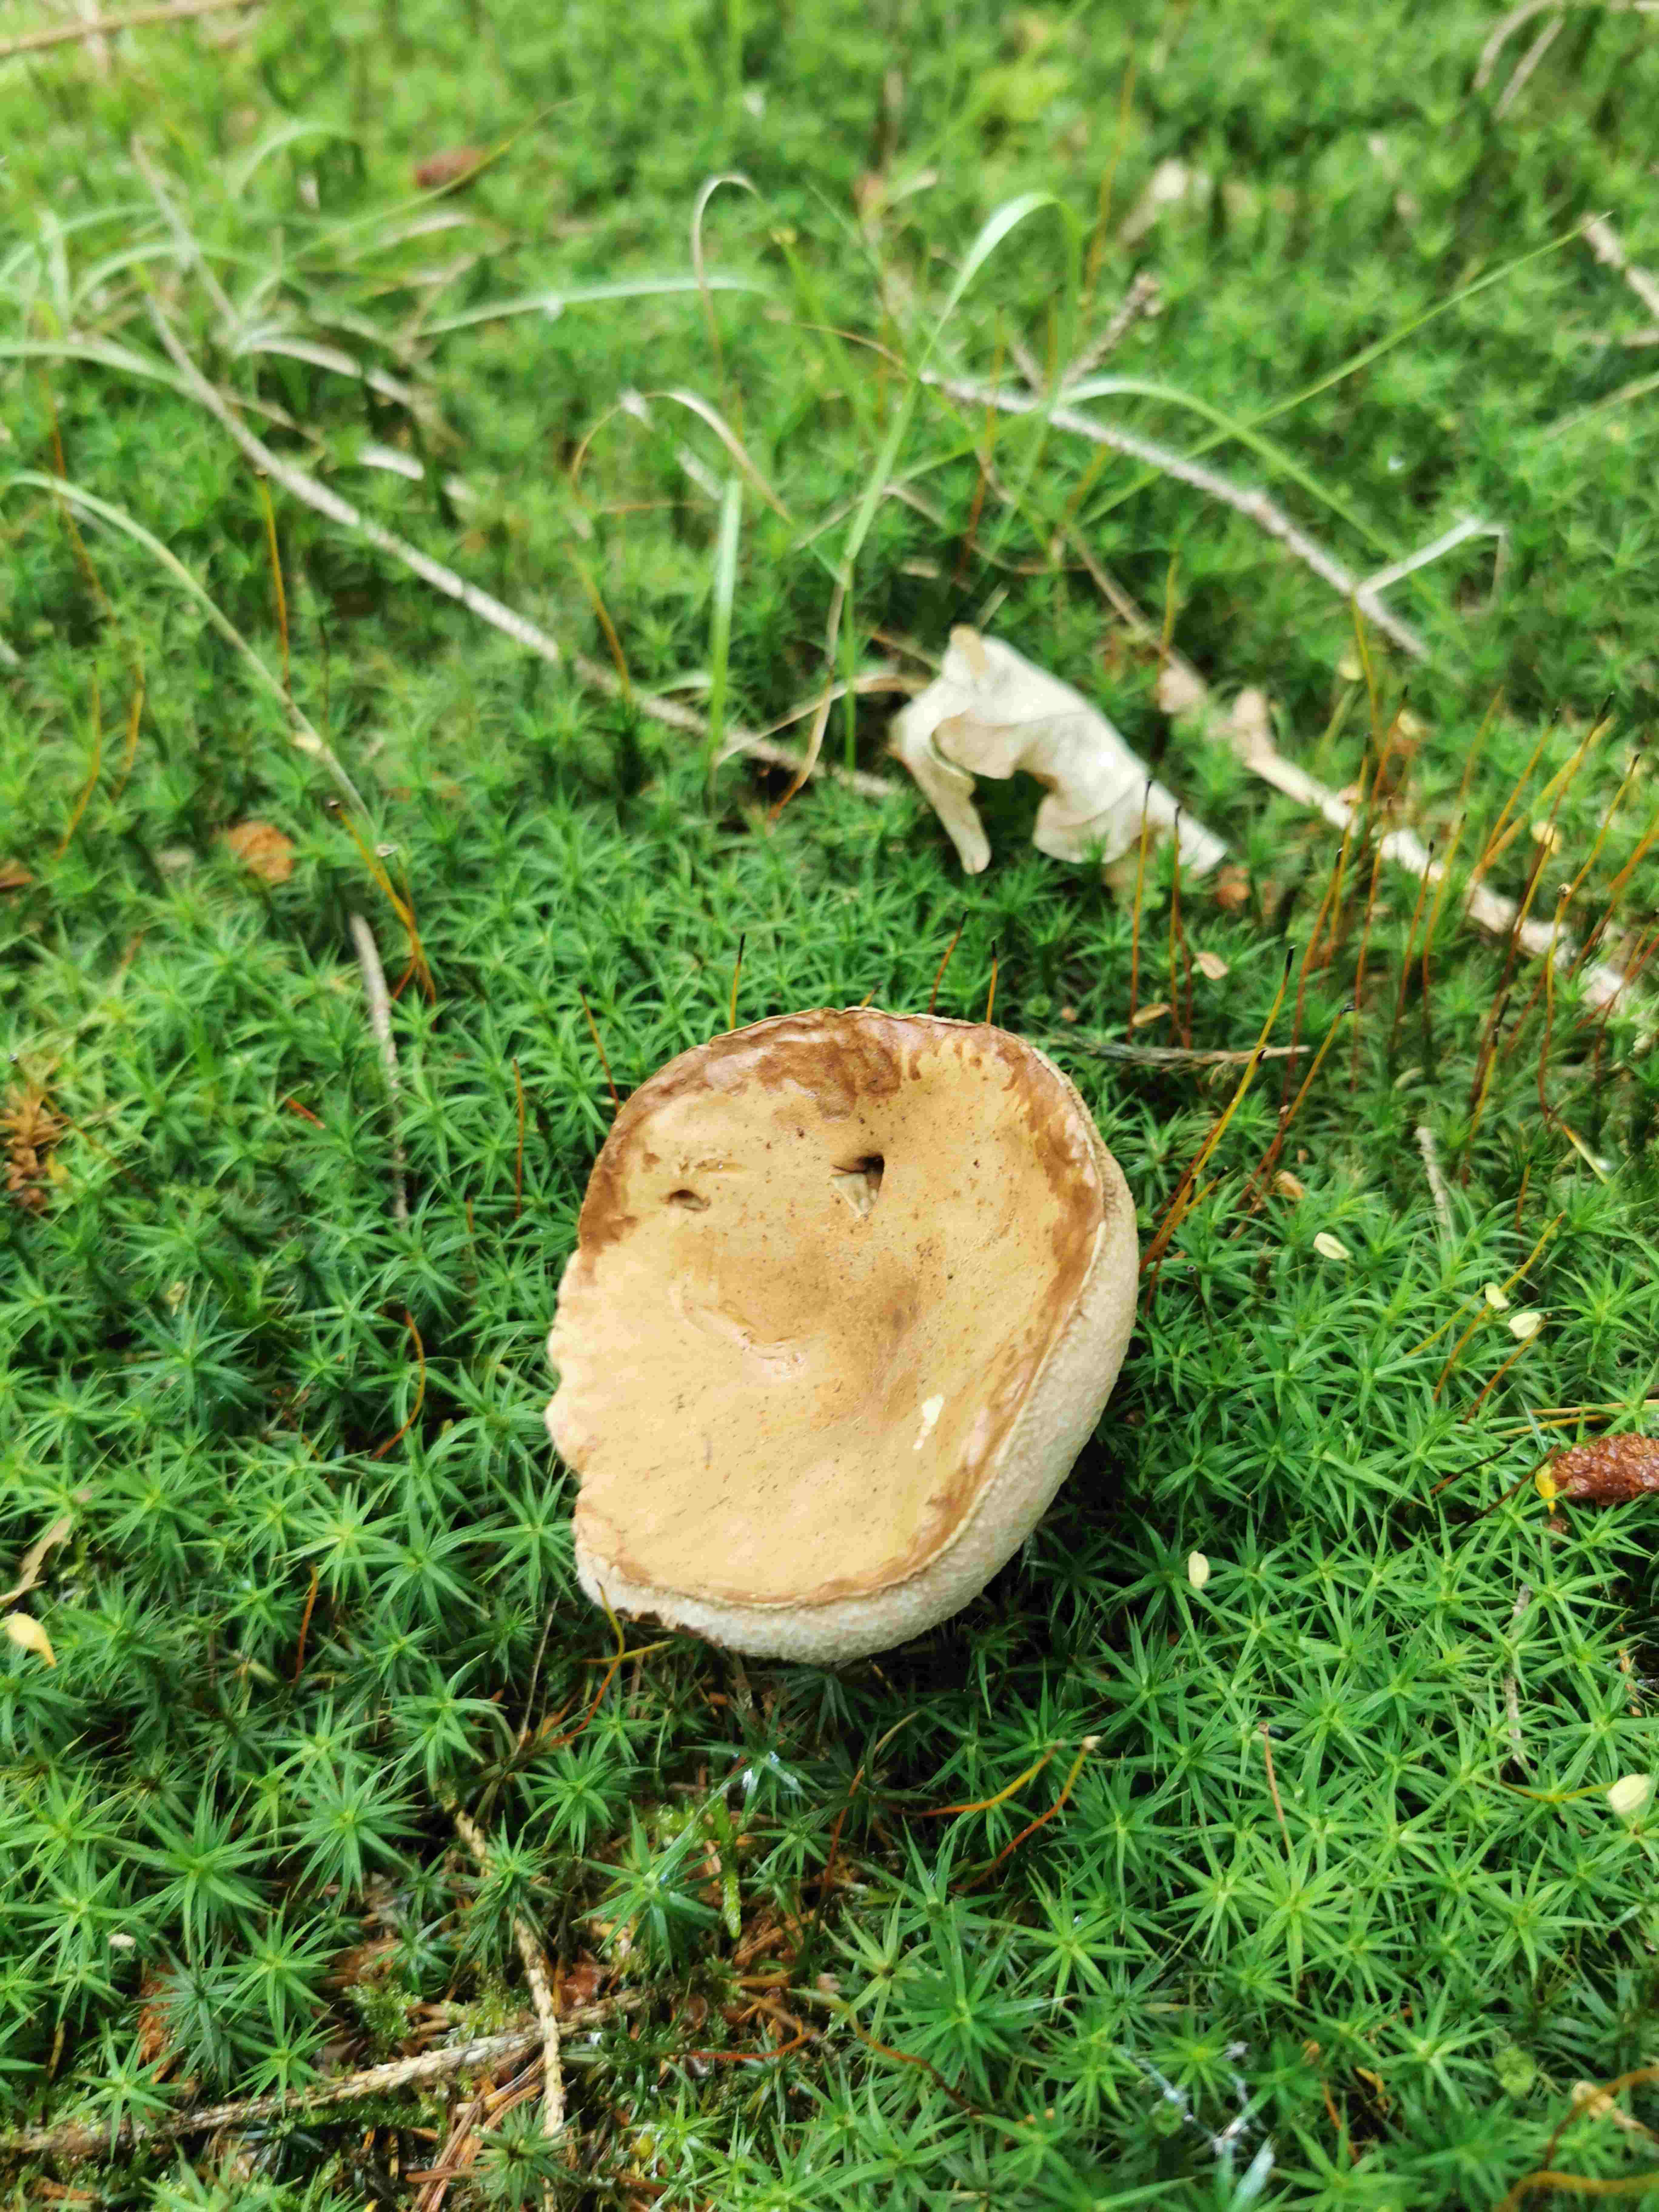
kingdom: Fungi
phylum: Basidiomycota
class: Agaricomycetes
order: Boletales
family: Boletaceae
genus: Tylopilus
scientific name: Tylopilus felleus
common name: galderørhat
